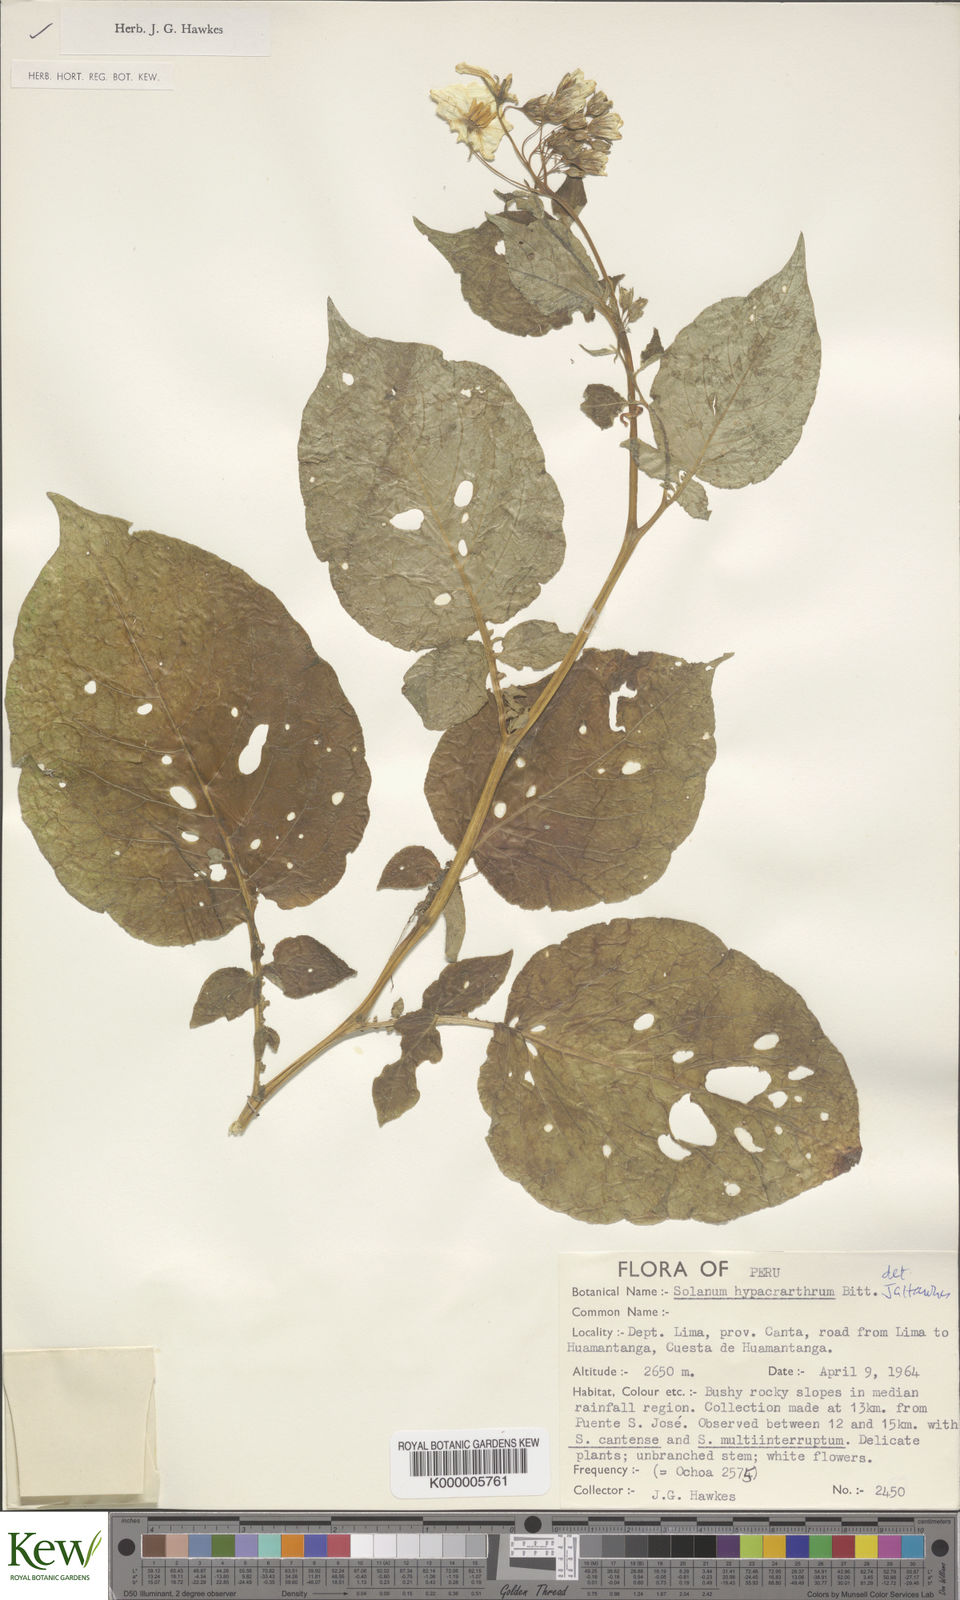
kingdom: Plantae
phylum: Tracheophyta
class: Magnoliopsida
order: Solanales
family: Solanaceae
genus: Solanum
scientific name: Solanum hypacrarthrum
